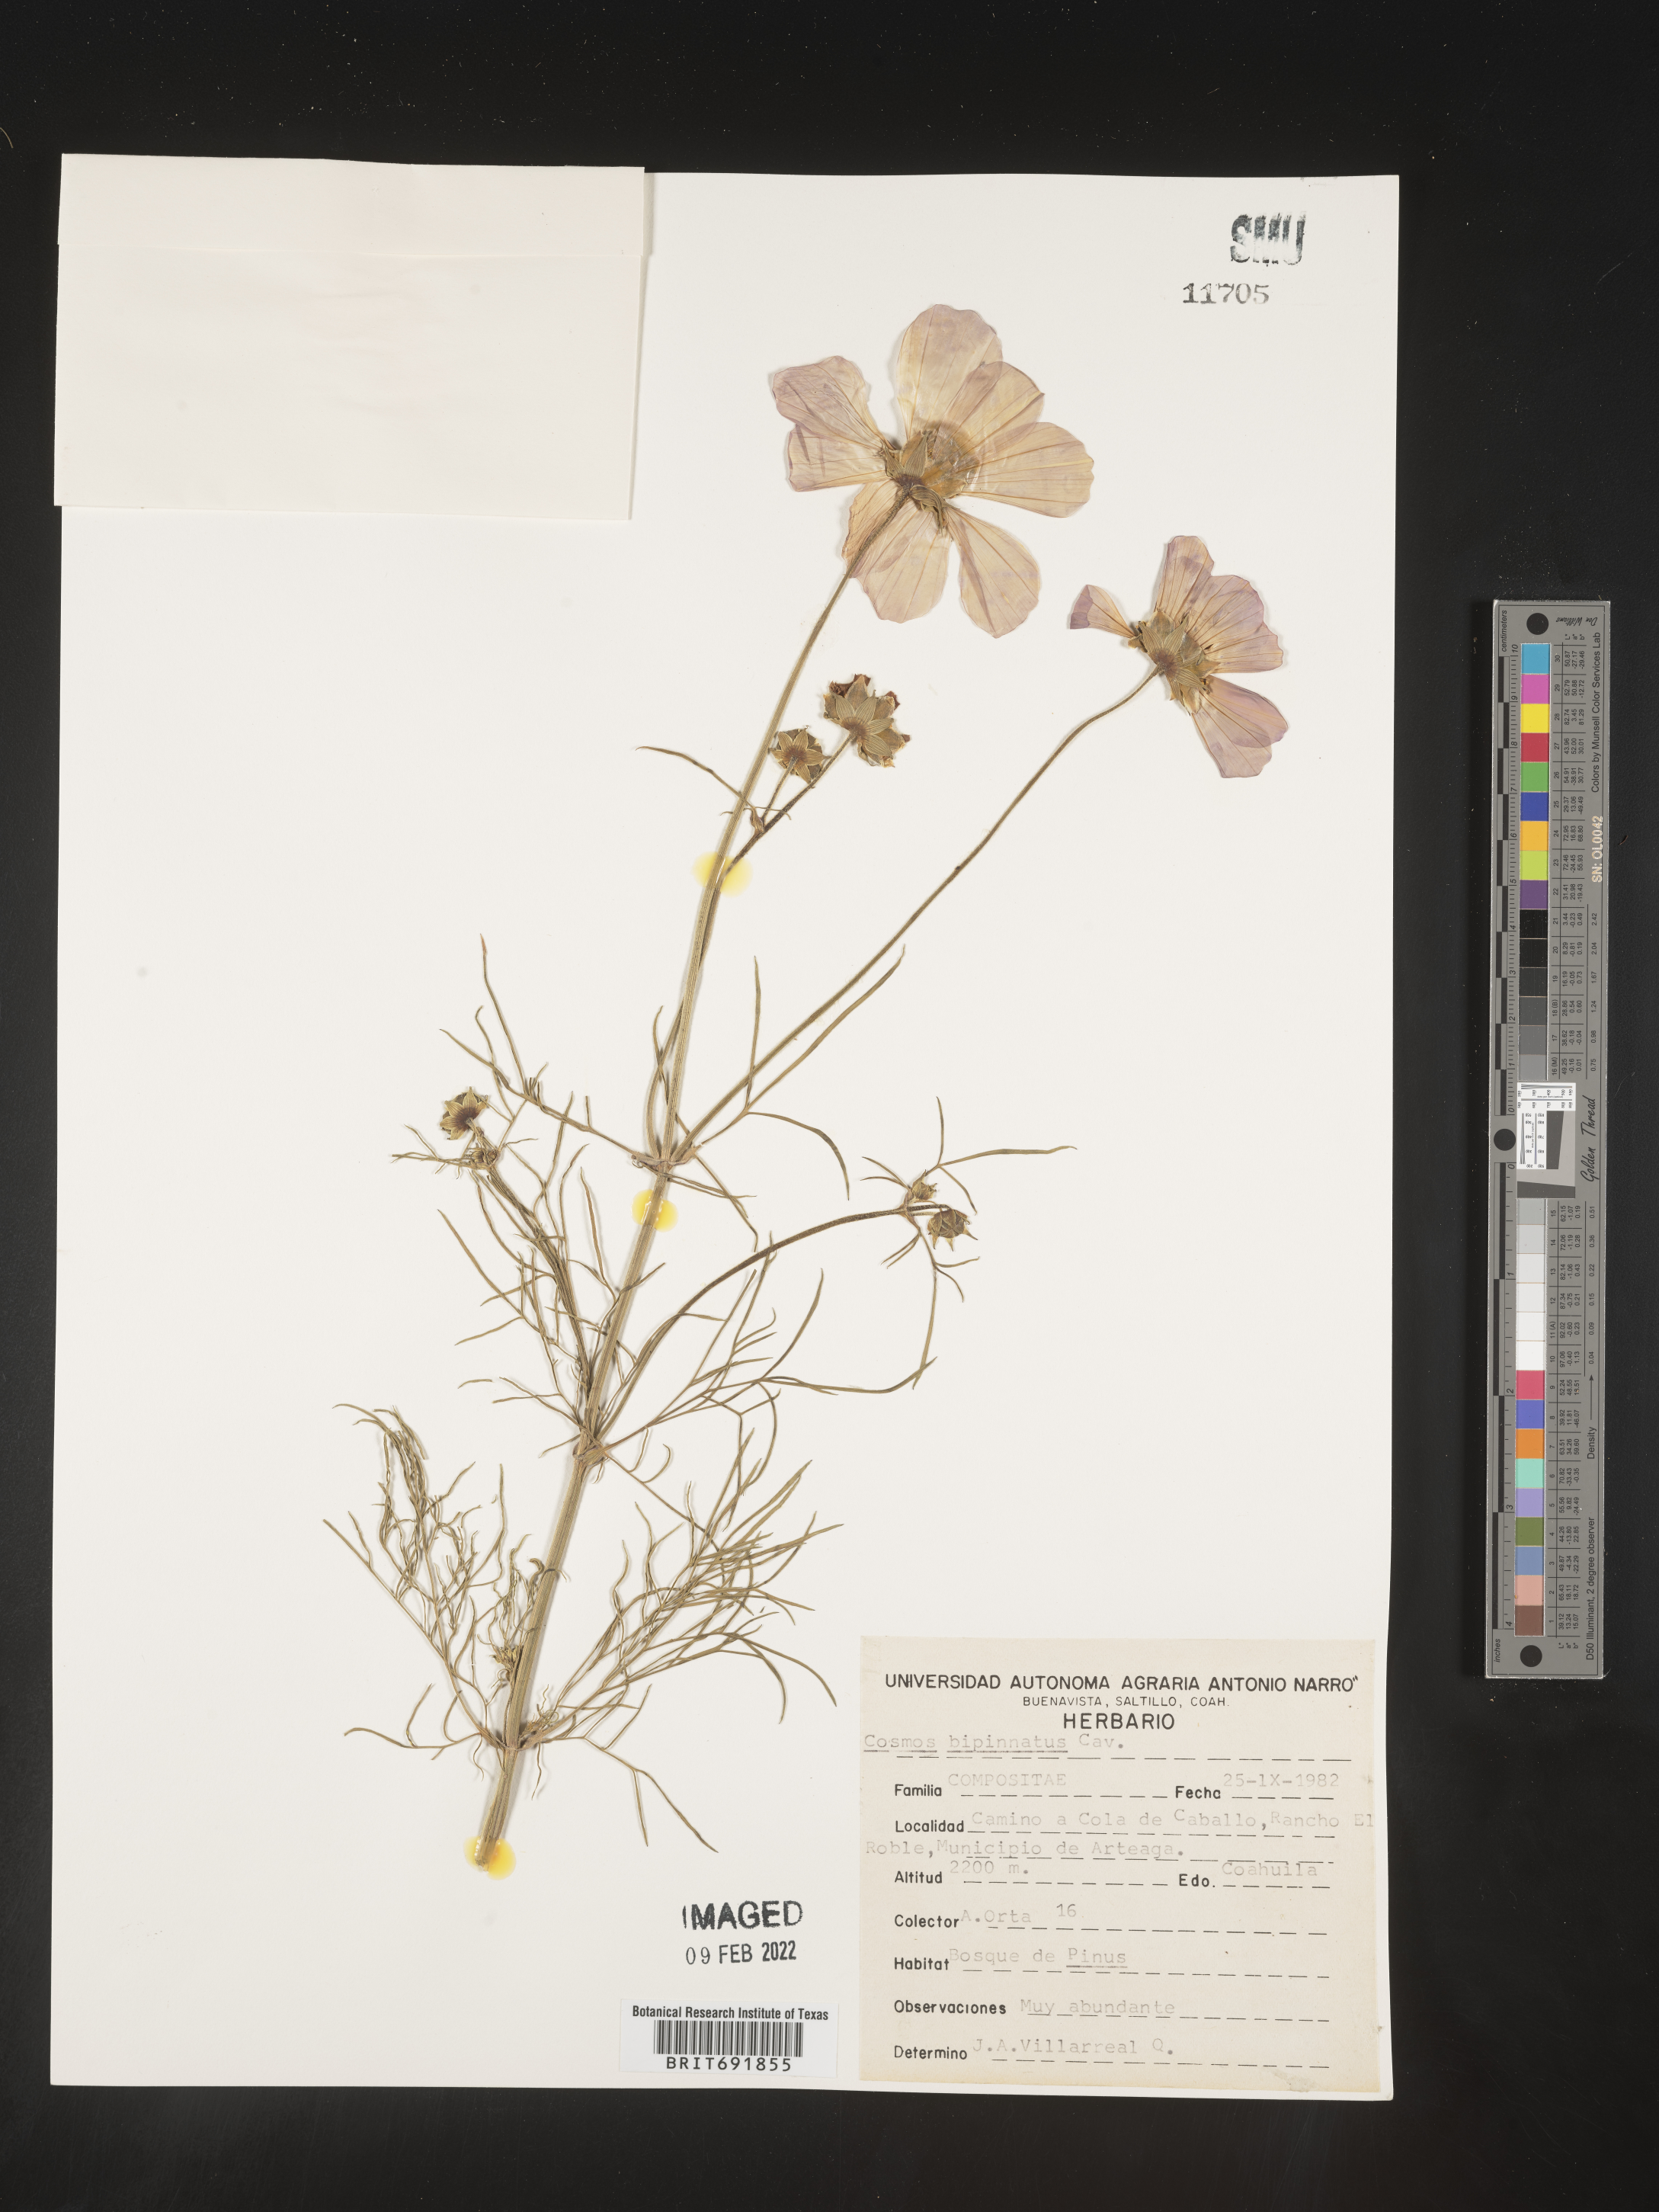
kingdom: Plantae
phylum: Tracheophyta
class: Magnoliopsida
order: Asterales
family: Asteraceae
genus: Cosmos
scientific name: Cosmos
